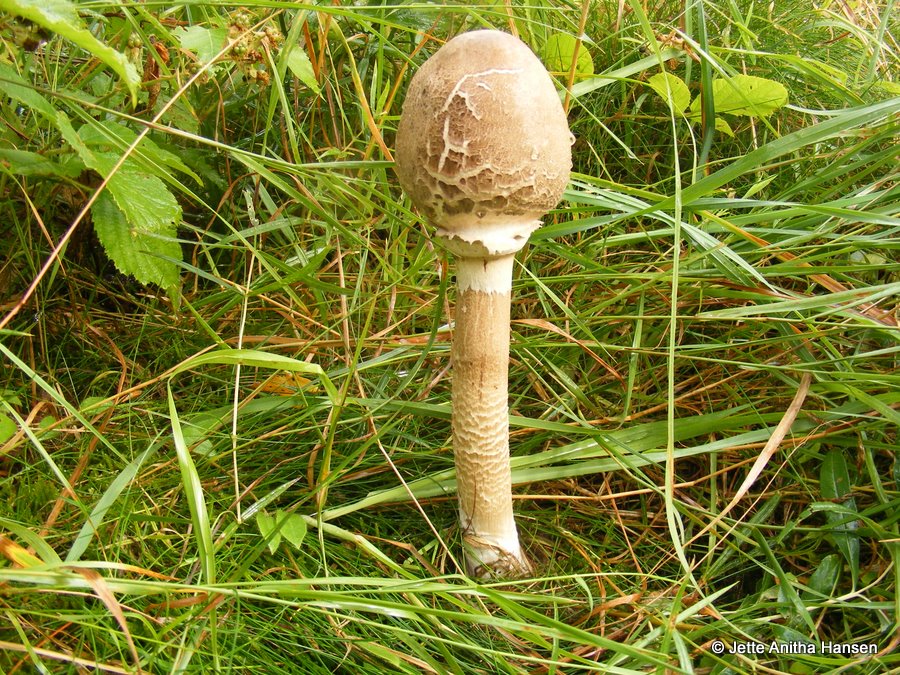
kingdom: Fungi
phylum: Basidiomycota
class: Agaricomycetes
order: Agaricales
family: Agaricaceae
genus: Macrolepiota
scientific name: Macrolepiota procera
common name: stor kæmpeparasolhat
